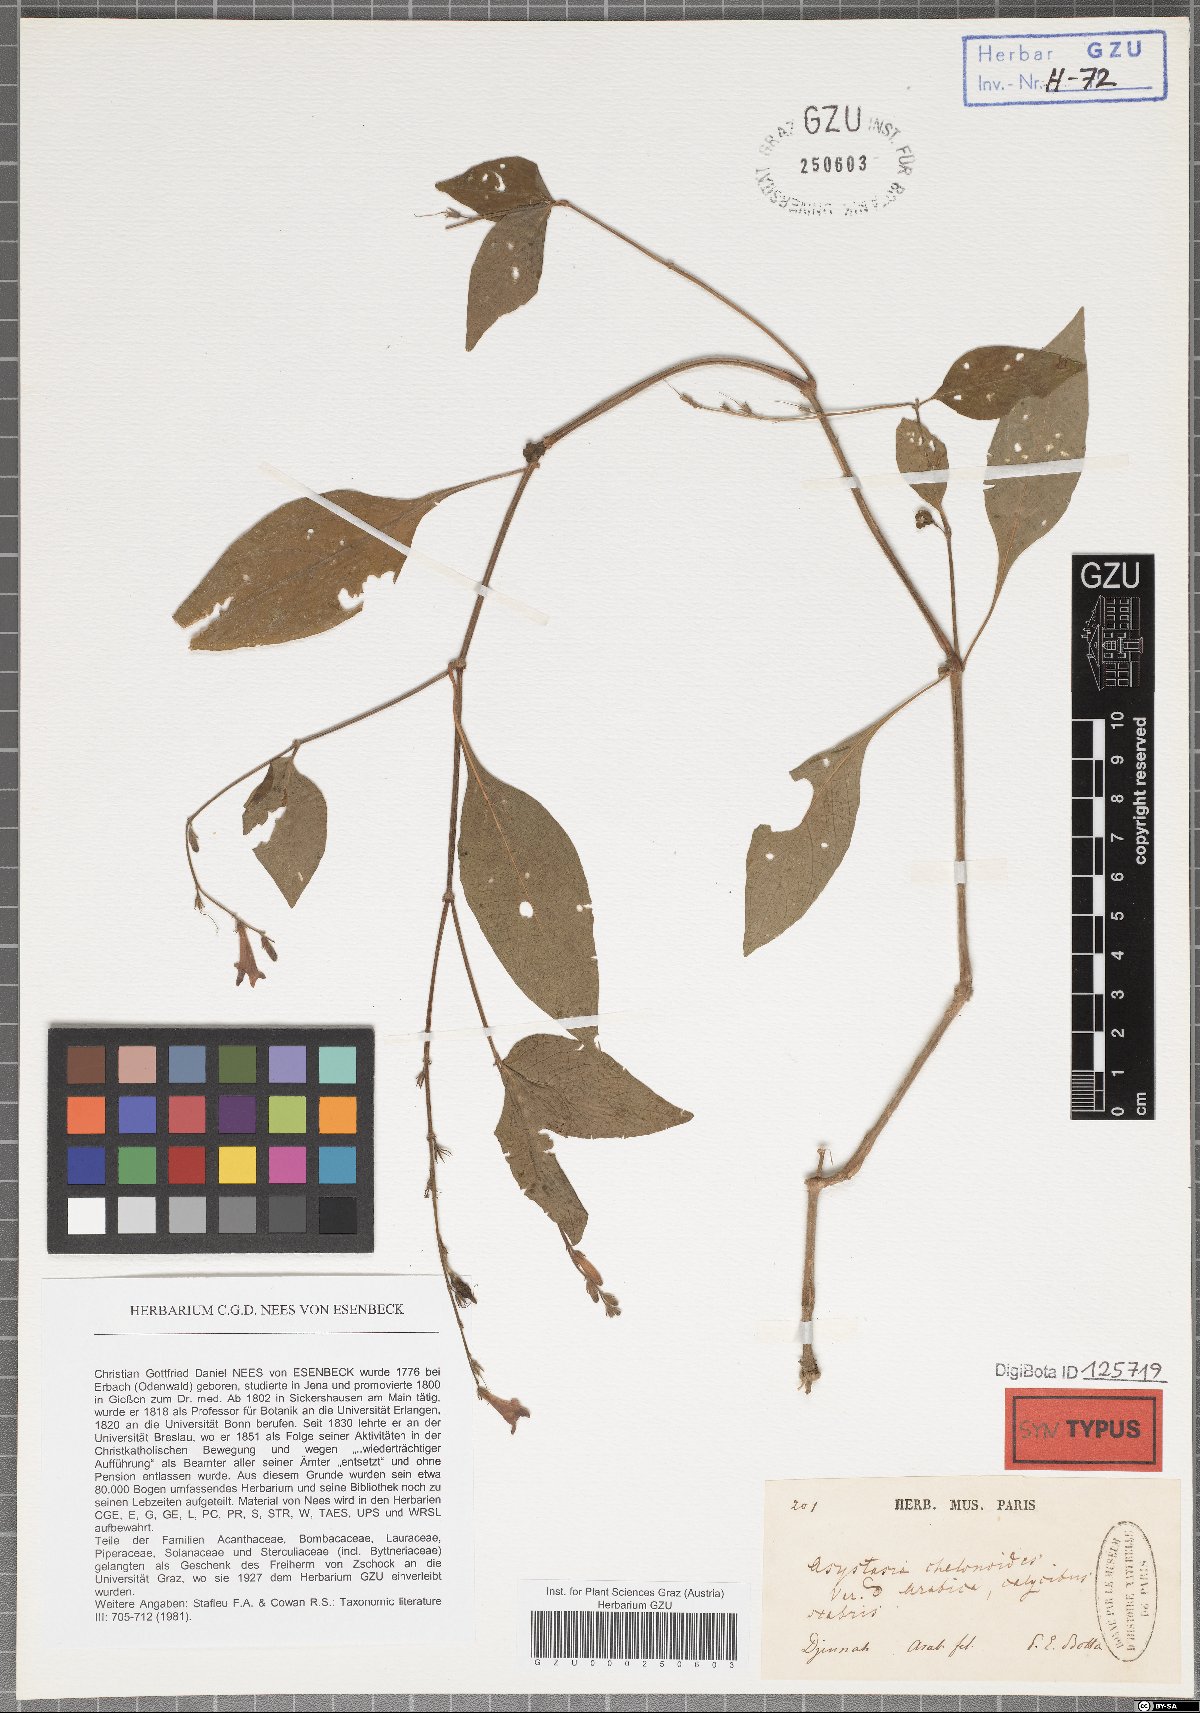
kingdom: Plantae
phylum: Tracheophyta
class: Magnoliopsida
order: Lamiales
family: Acanthaceae
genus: Asystasia
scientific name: Asystasia intrusa
